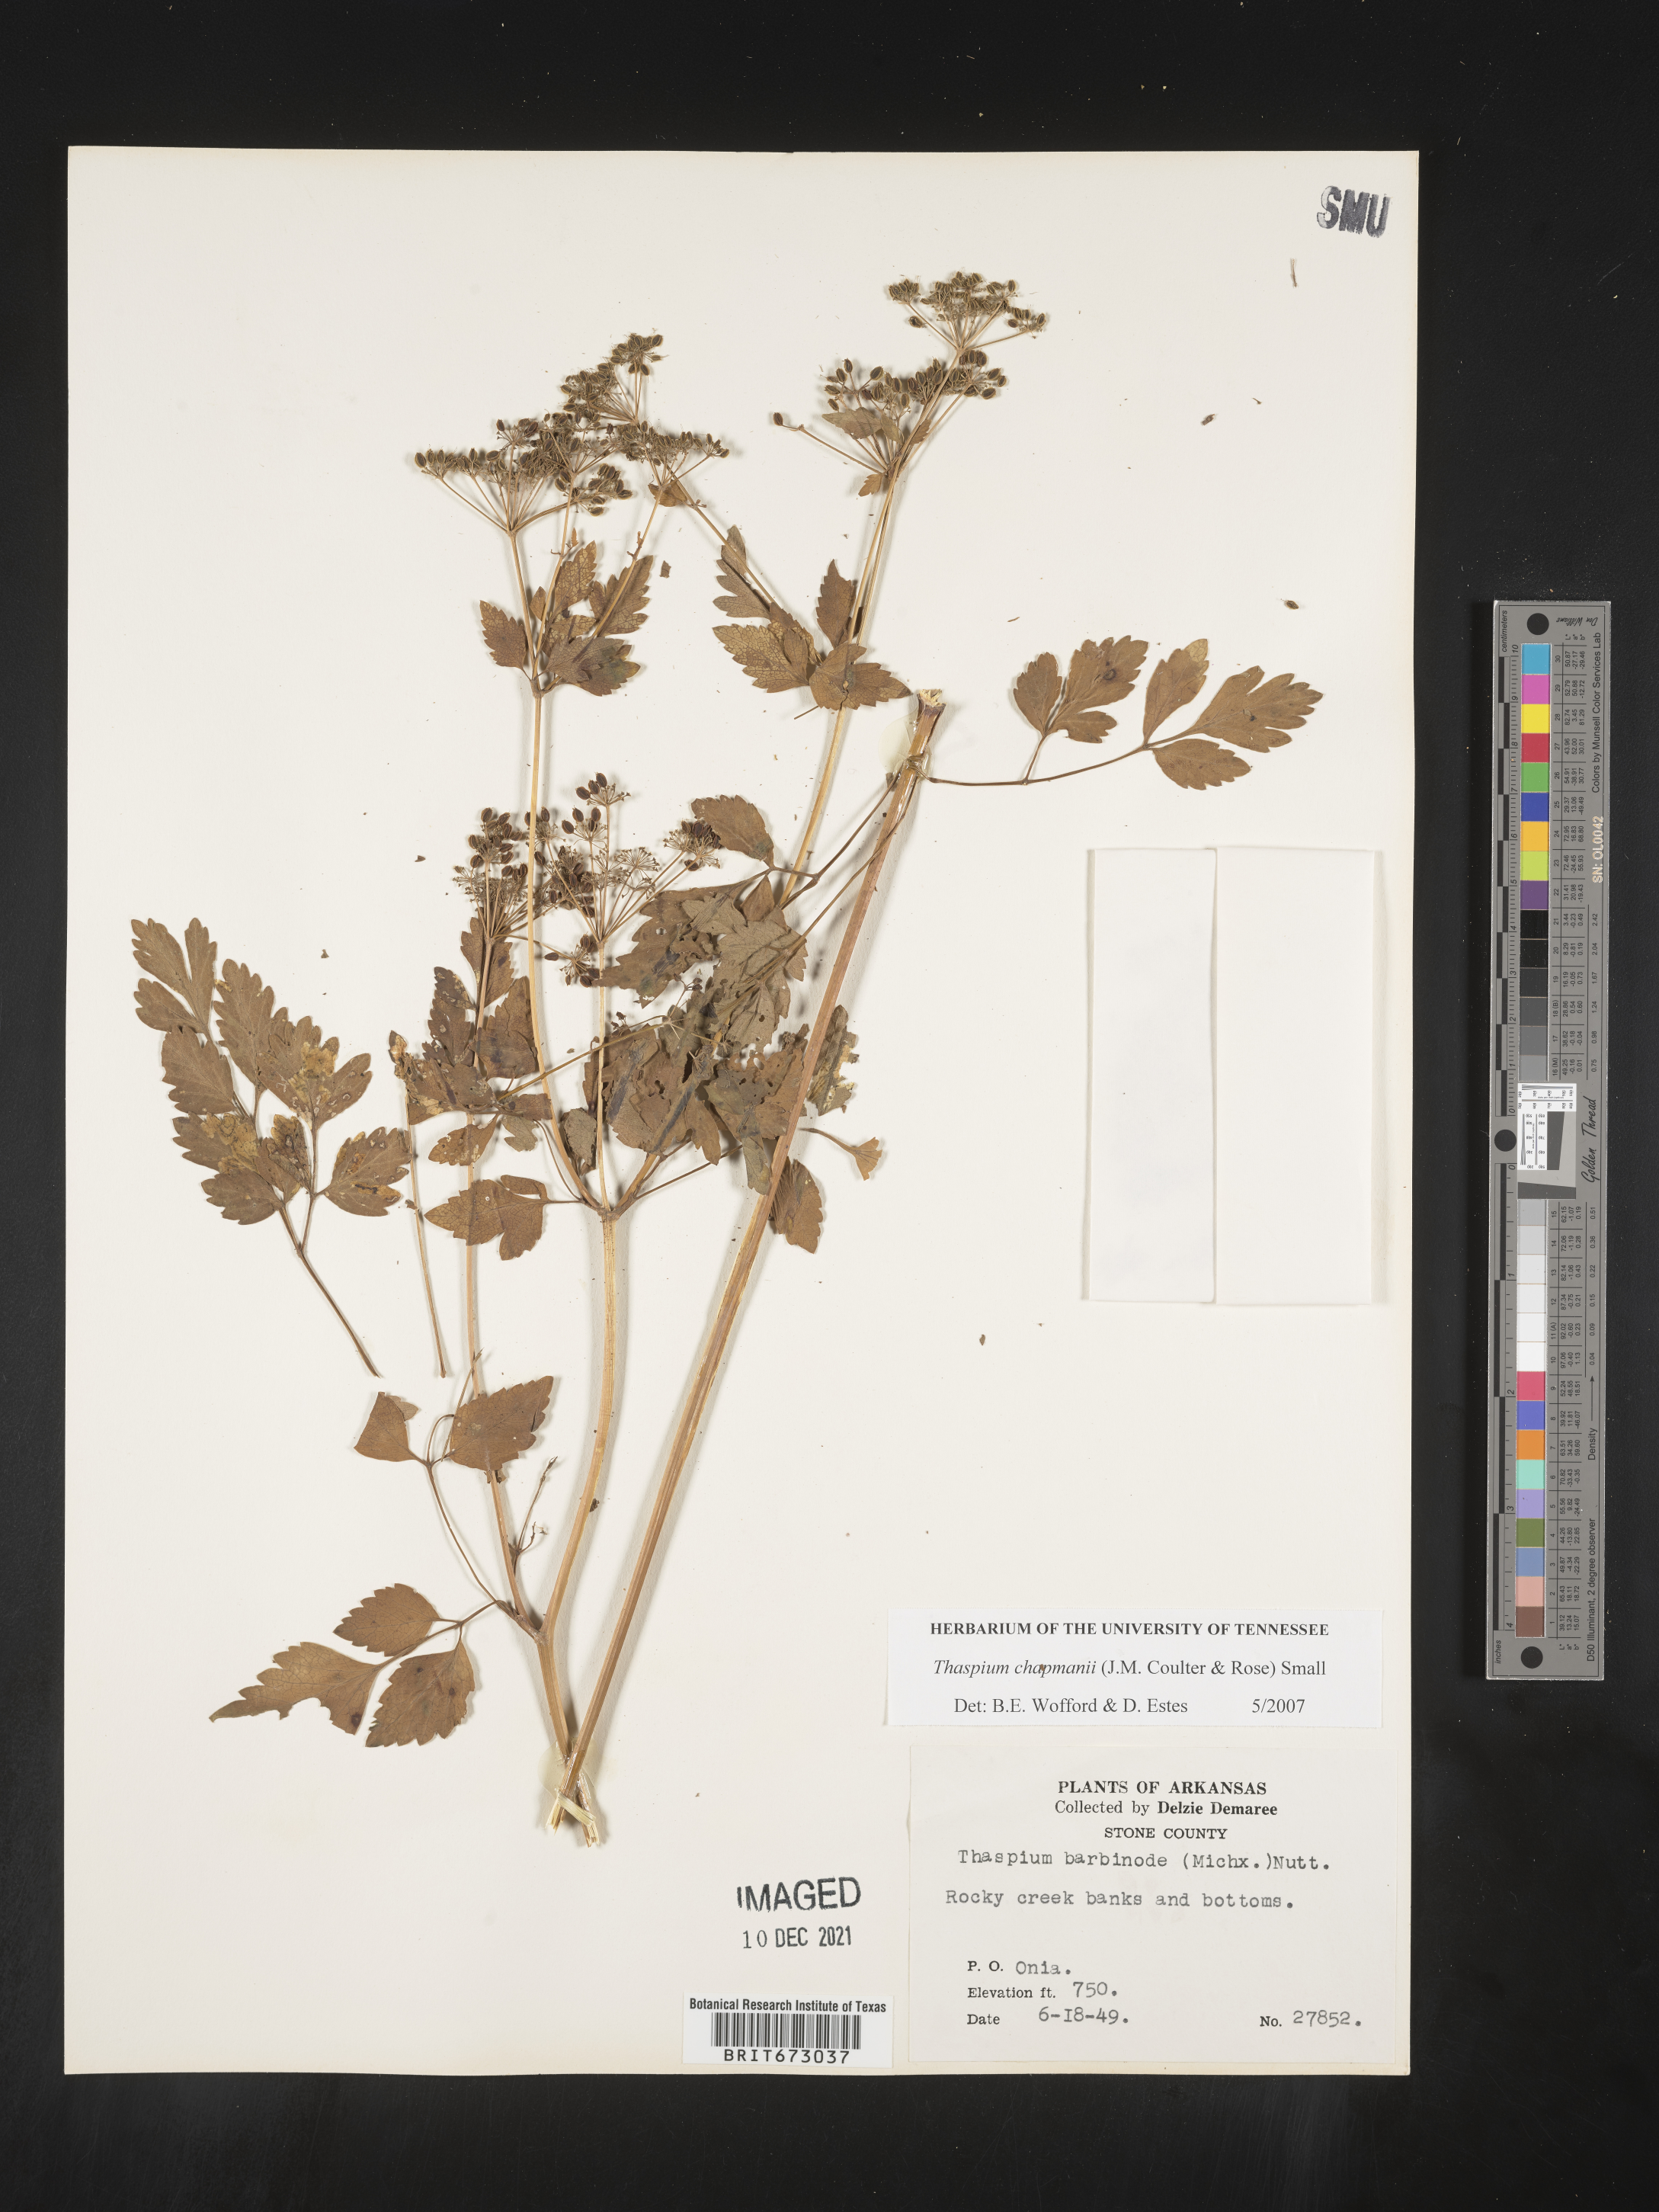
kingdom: Plantae
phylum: Tracheophyta
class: Magnoliopsida
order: Apiales
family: Apiaceae
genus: Thaspium
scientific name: Thaspium barbinode
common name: Bearded meadow-parsnip
